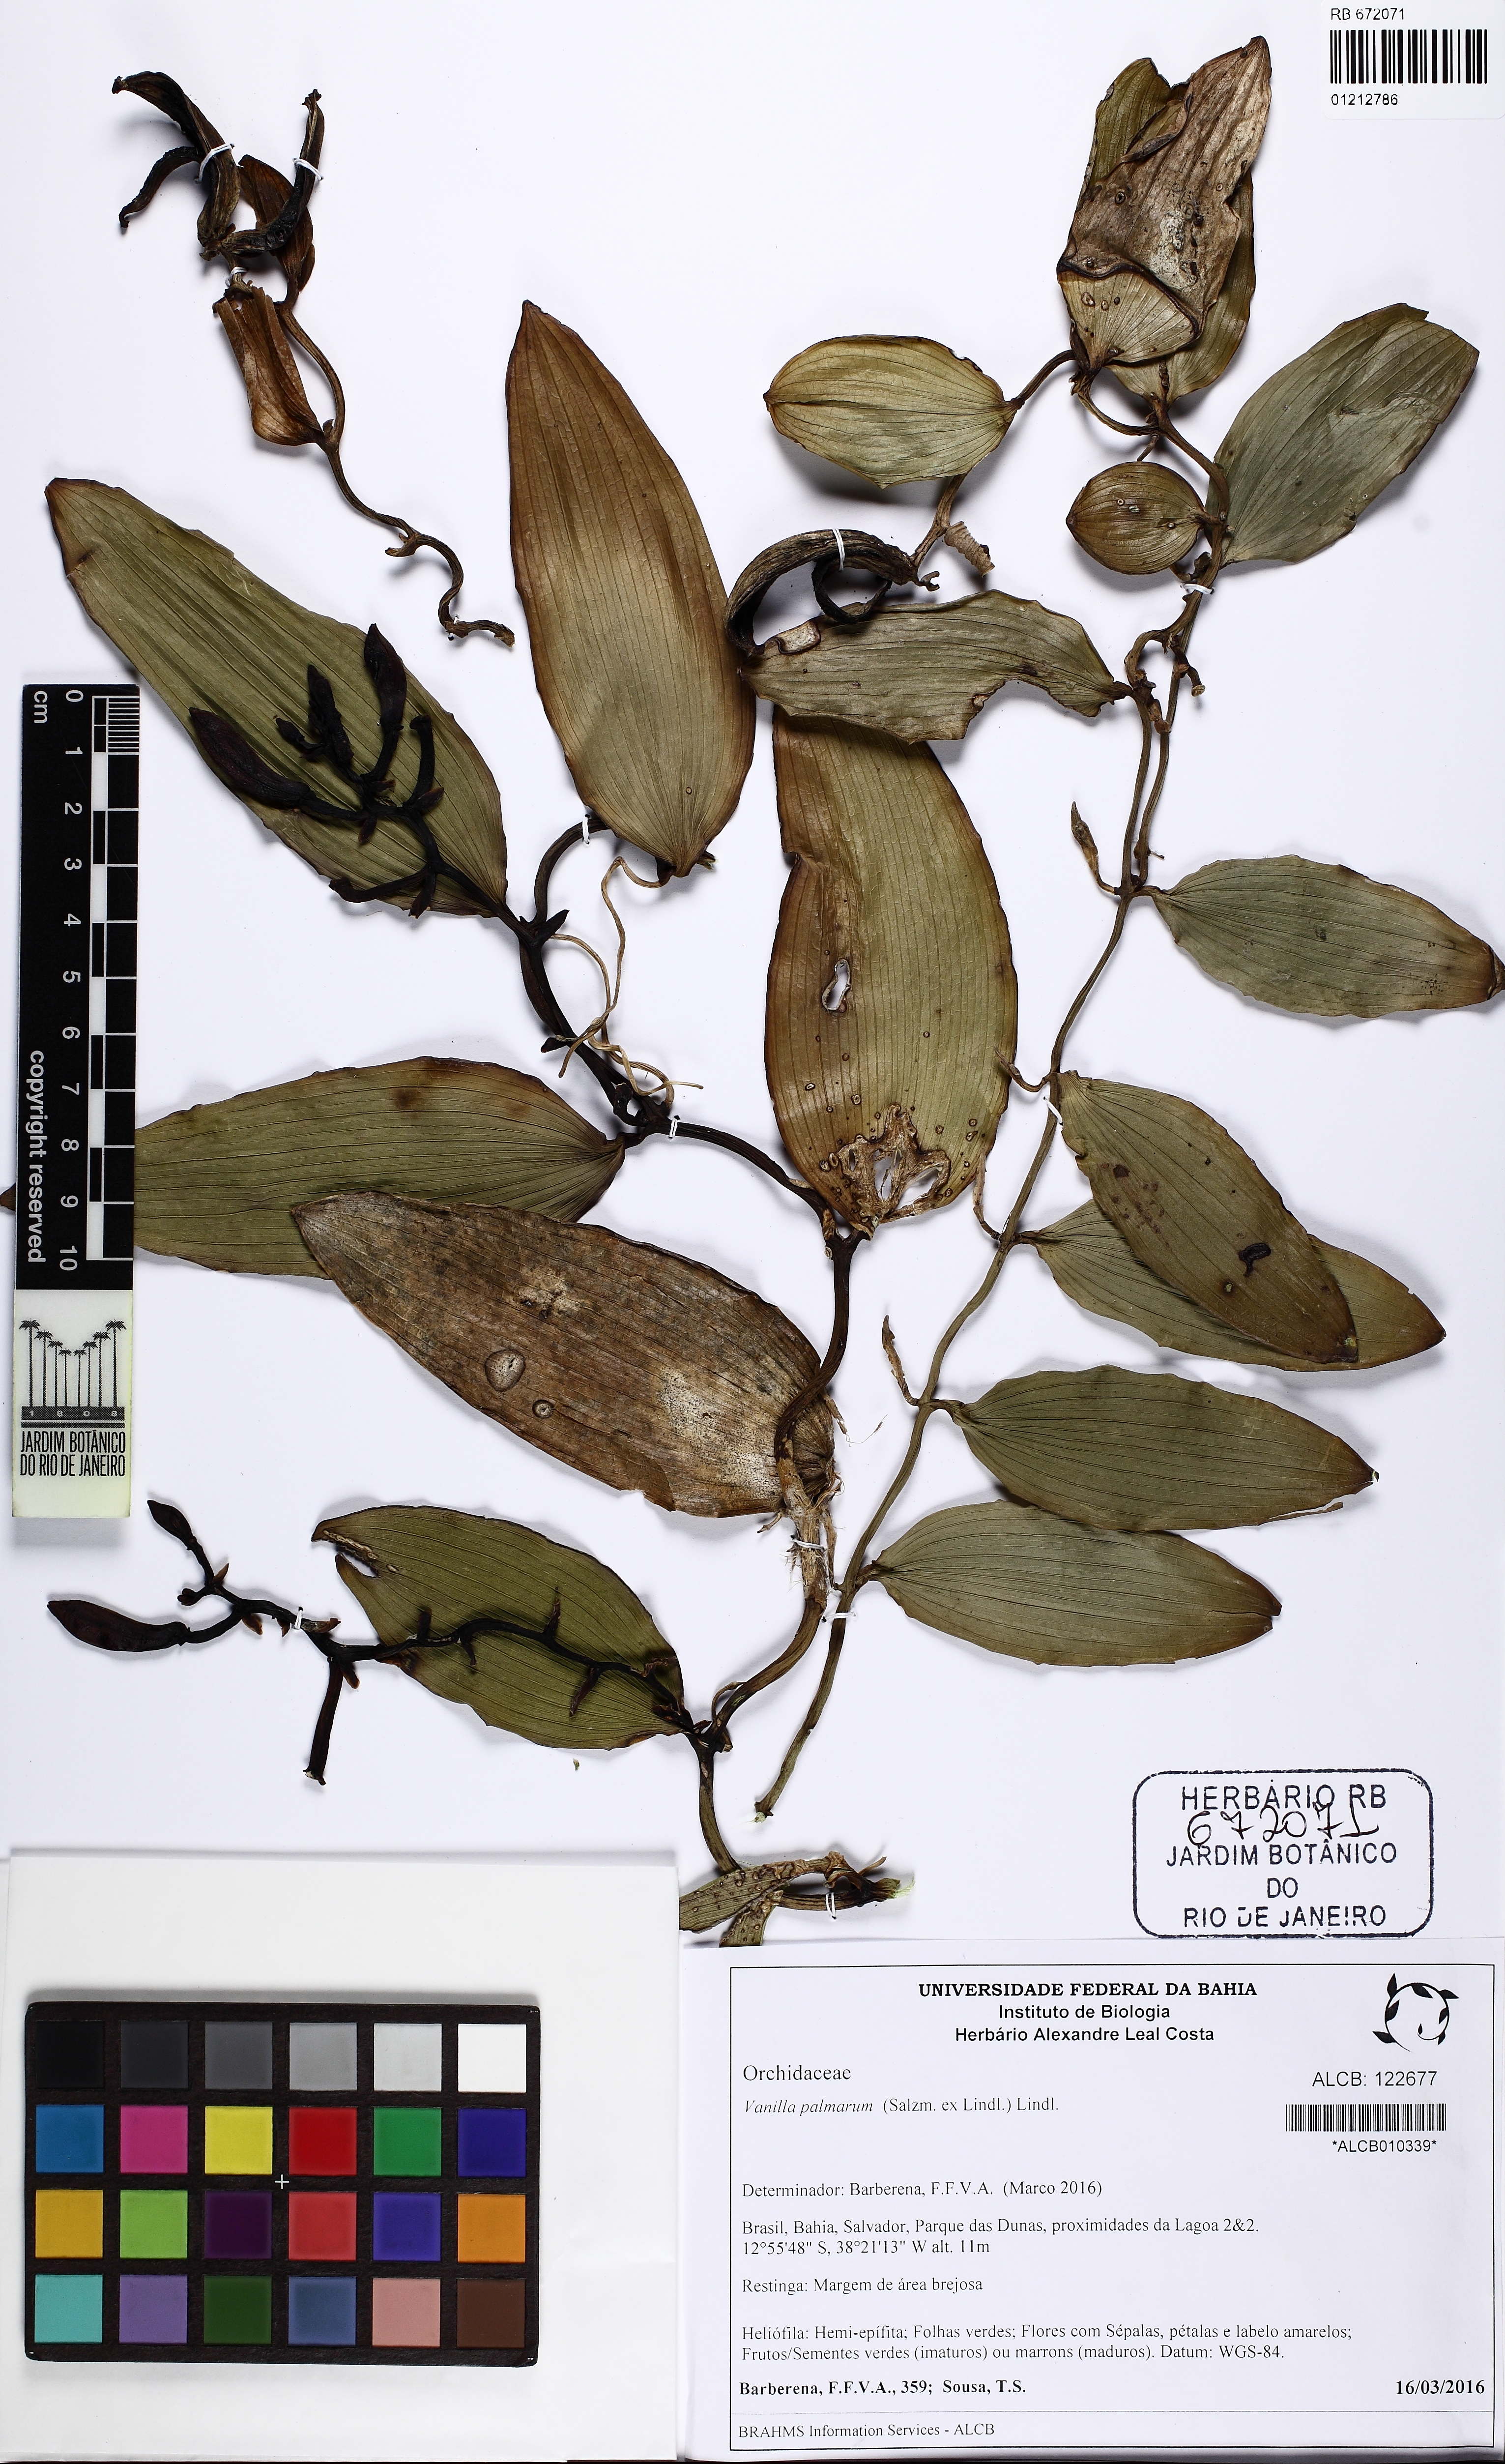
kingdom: Plantae
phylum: Tracheophyta
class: Liliopsida
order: Asparagales
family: Orchidaceae
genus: Vanilla
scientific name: Vanilla palmarum
